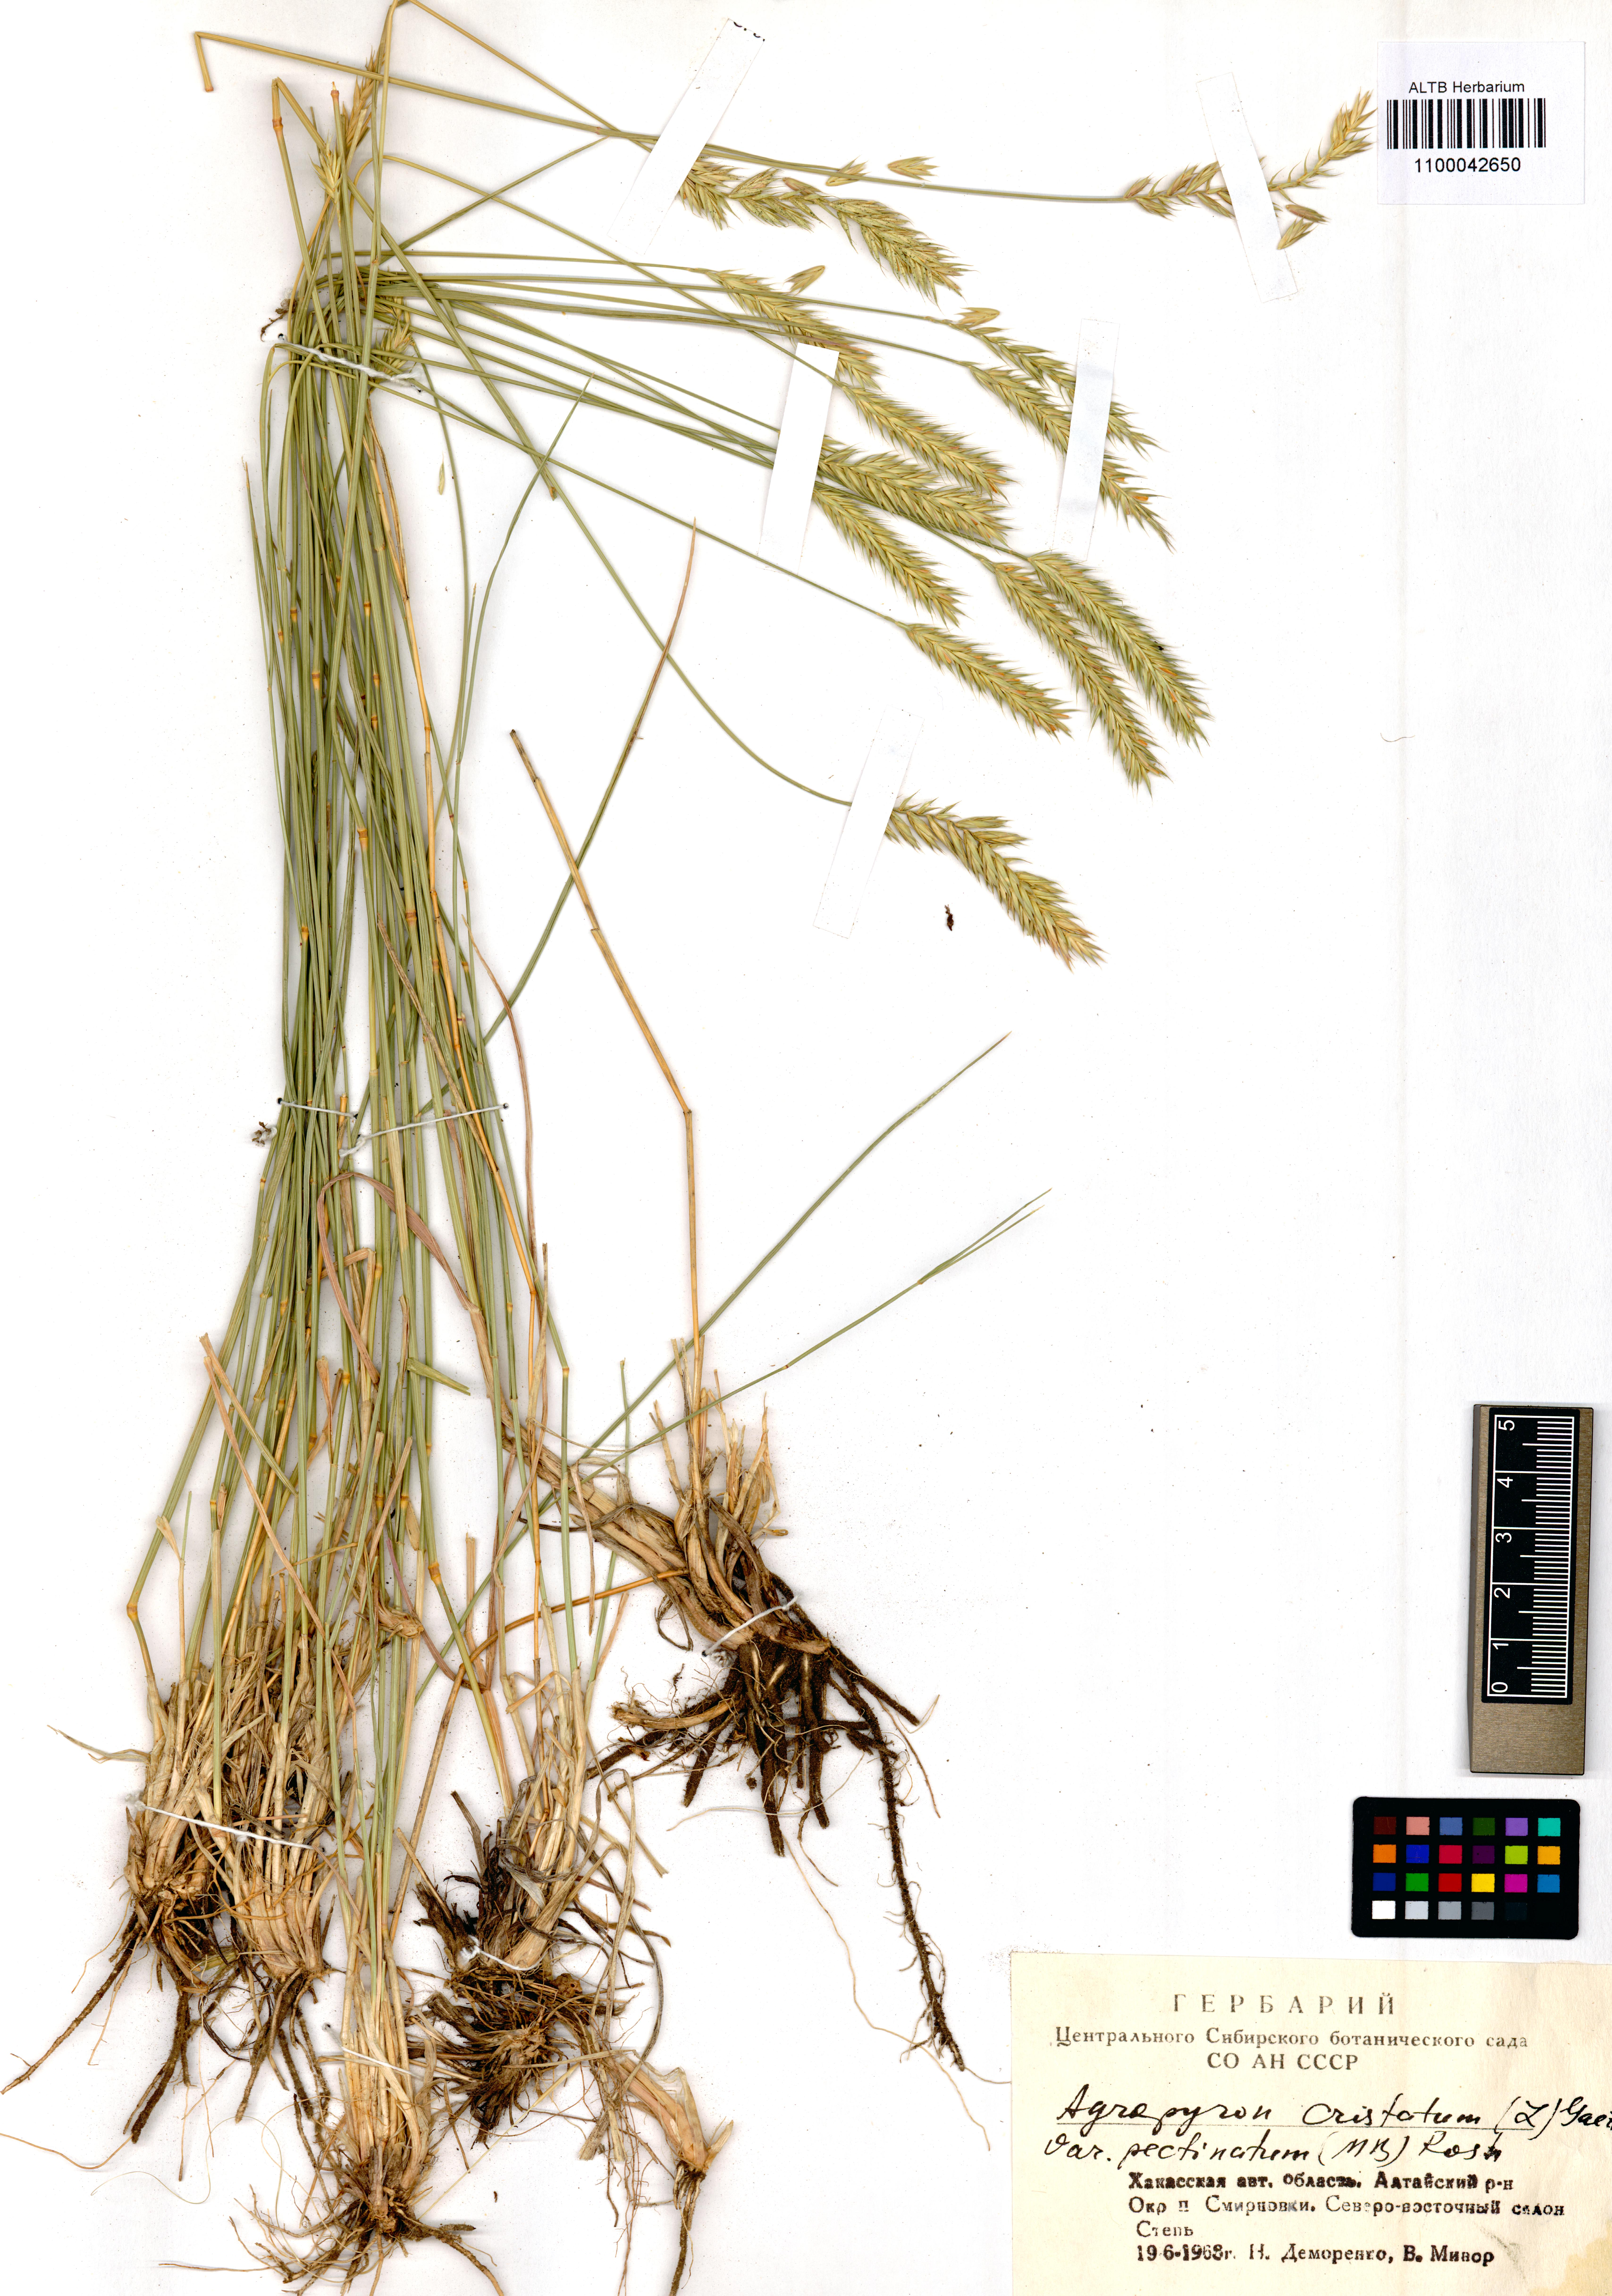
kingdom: Plantae
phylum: Tracheophyta
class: Liliopsida
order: Poales
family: Poaceae
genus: Agropyron
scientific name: Agropyron cristatum
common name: Crested wheatgrass
